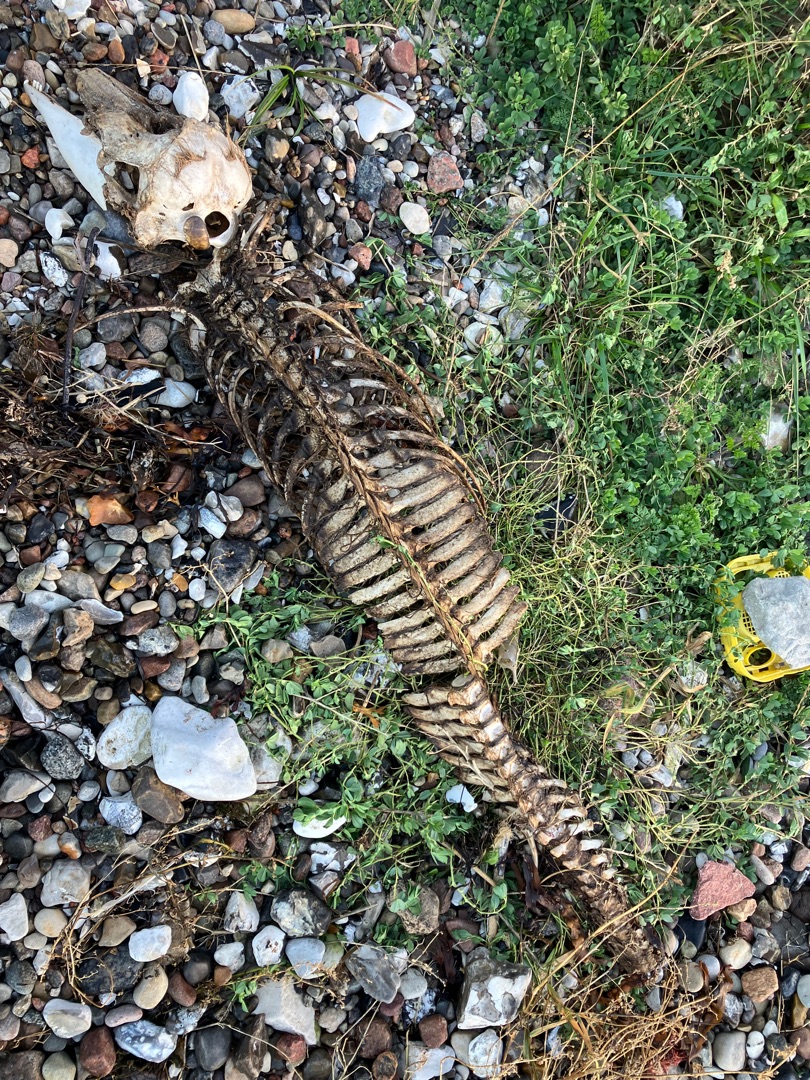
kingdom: Animalia
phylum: Chordata
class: Mammalia
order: Cetacea
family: Phocoenidae
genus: Phocoena
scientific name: Phocoena phocoena
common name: Marsvin
